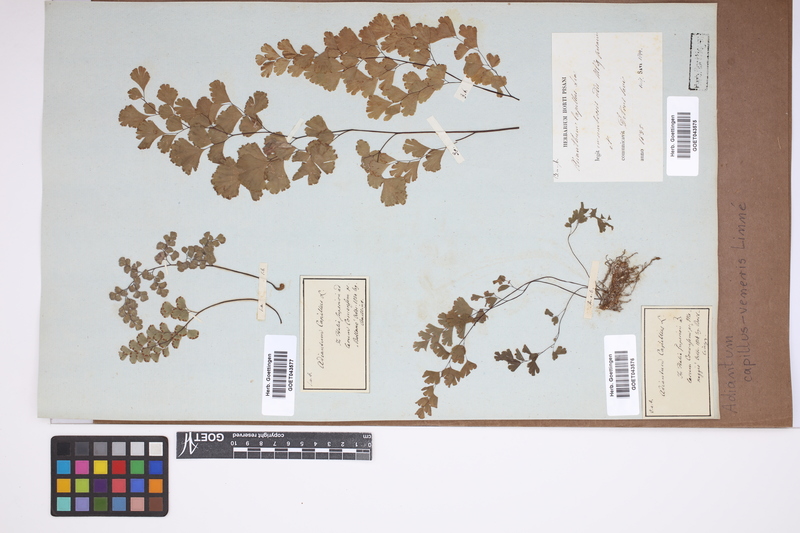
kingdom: Plantae
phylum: Tracheophyta
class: Polypodiopsida
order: Polypodiales
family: Pteridaceae
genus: Adiantum
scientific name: Adiantum capillus-veneris
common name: Maidenhair fern
